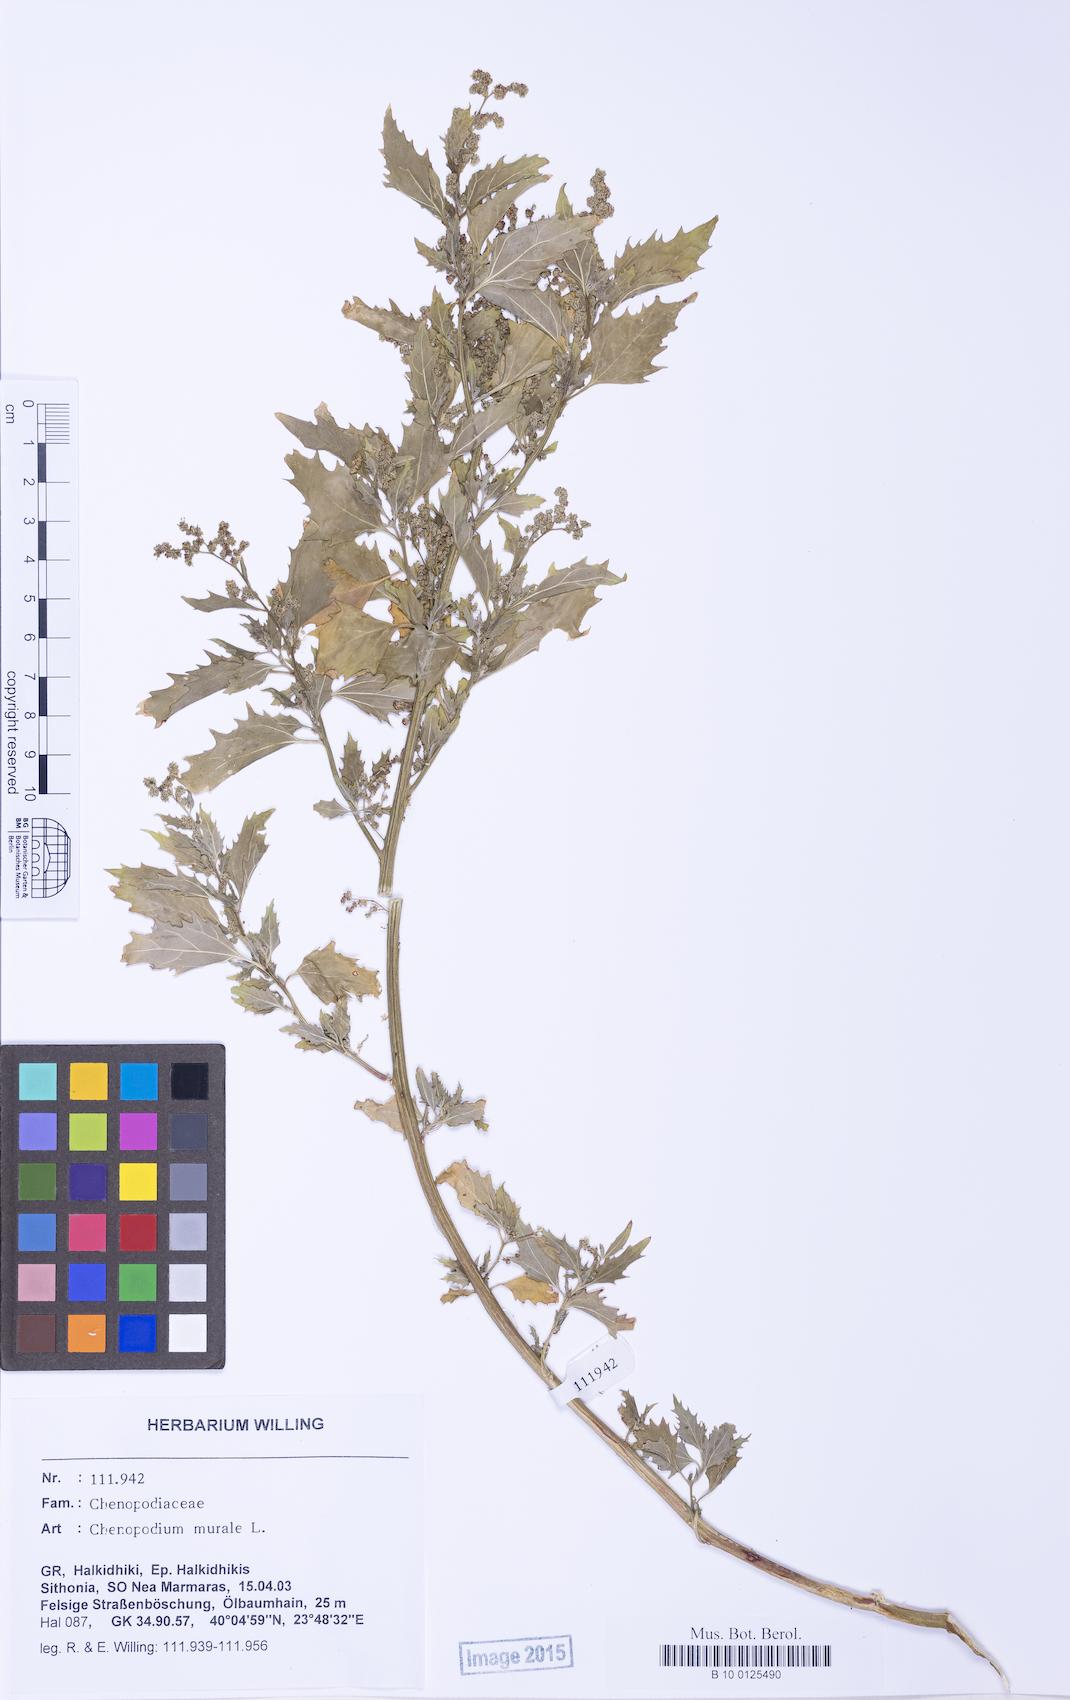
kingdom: Plantae
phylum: Tracheophyta
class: Magnoliopsida
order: Caryophyllales
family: Amaranthaceae
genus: Chenopodiastrum
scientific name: Chenopodiastrum murale
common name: Sowbane
